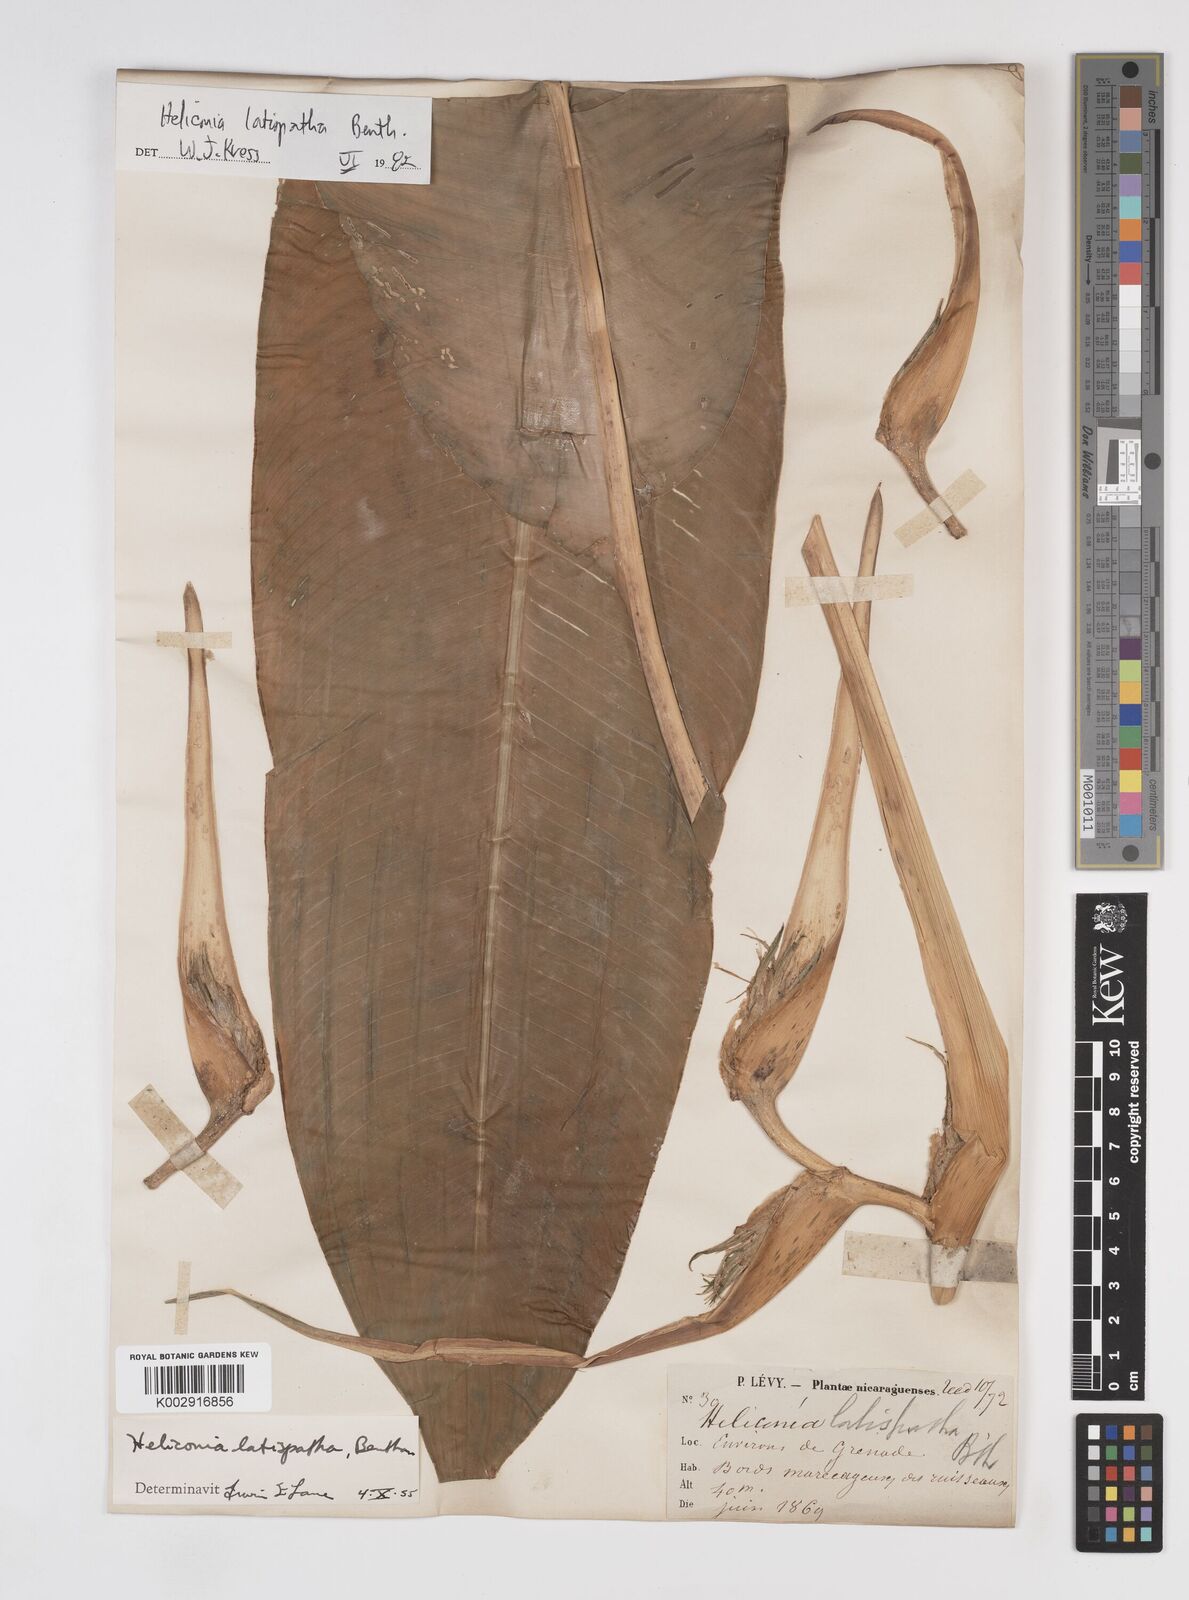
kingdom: Plantae
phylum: Tracheophyta
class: Liliopsida
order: Zingiberales
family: Heliconiaceae
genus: Heliconia
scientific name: Heliconia latispatha
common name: Expanded lobsterclaw
